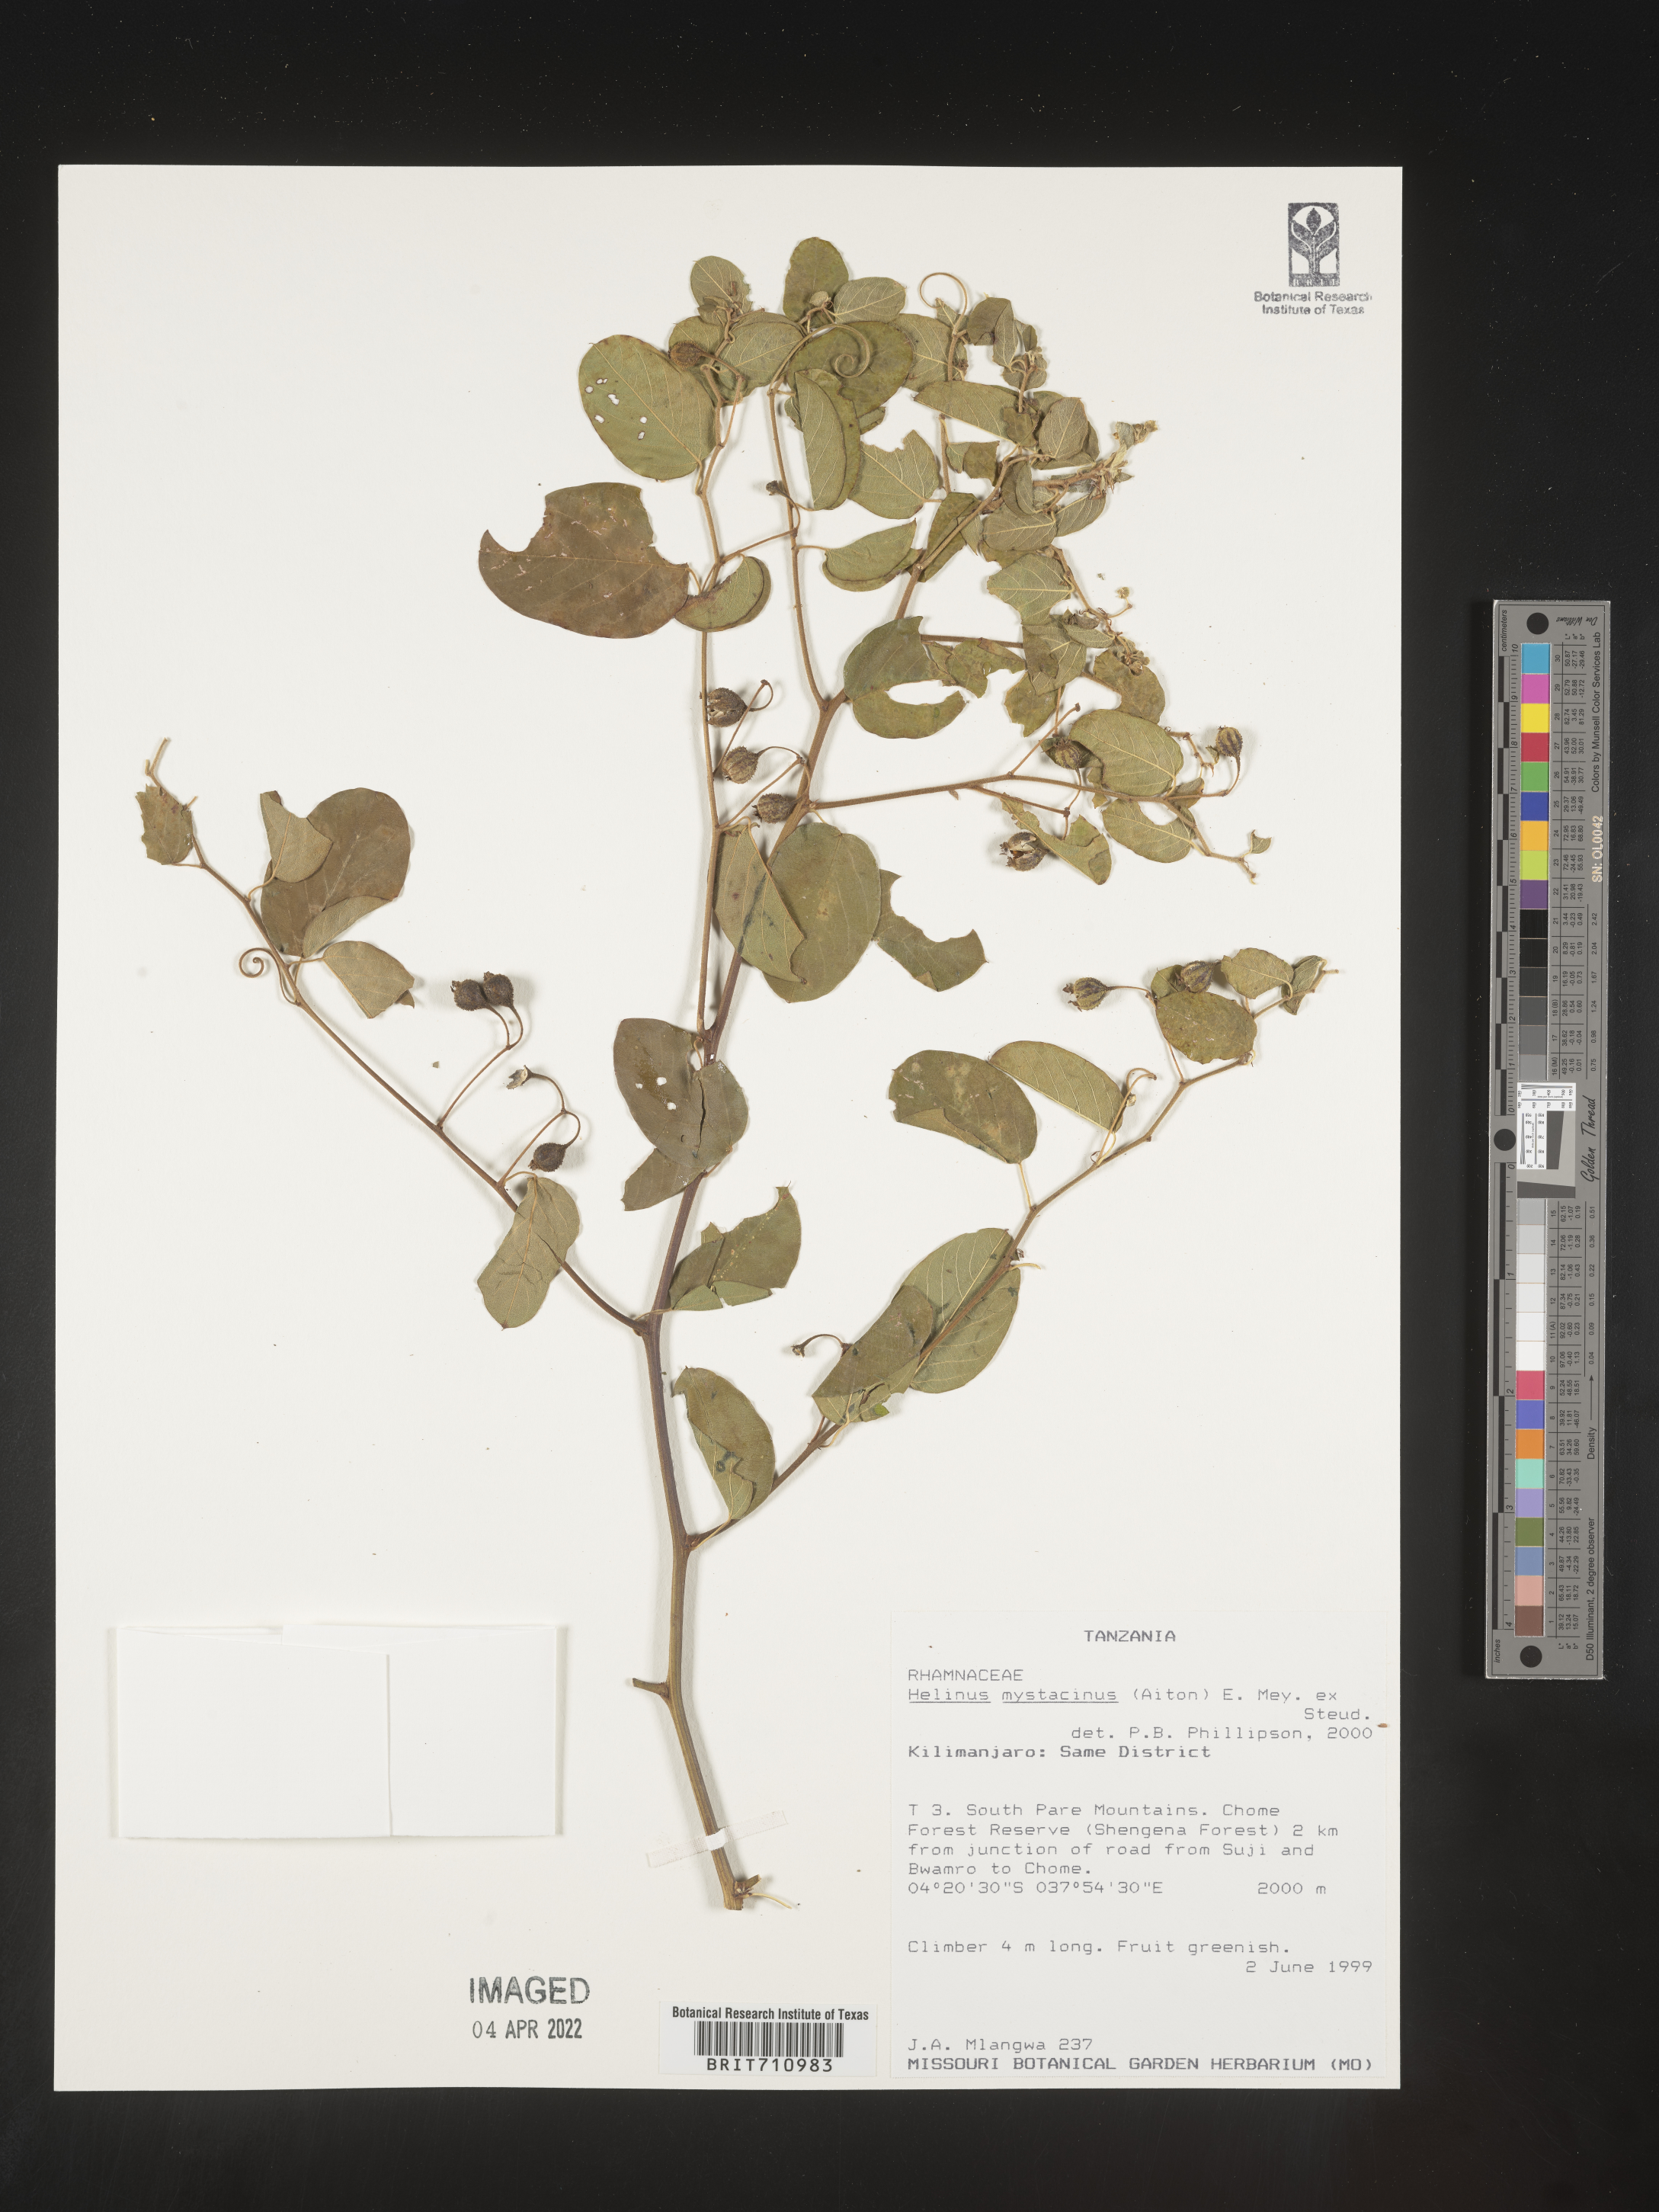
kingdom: Plantae
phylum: Tracheophyta
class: Magnoliopsida
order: Rosales
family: Rhamnaceae
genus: Helinus
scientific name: Helinus
